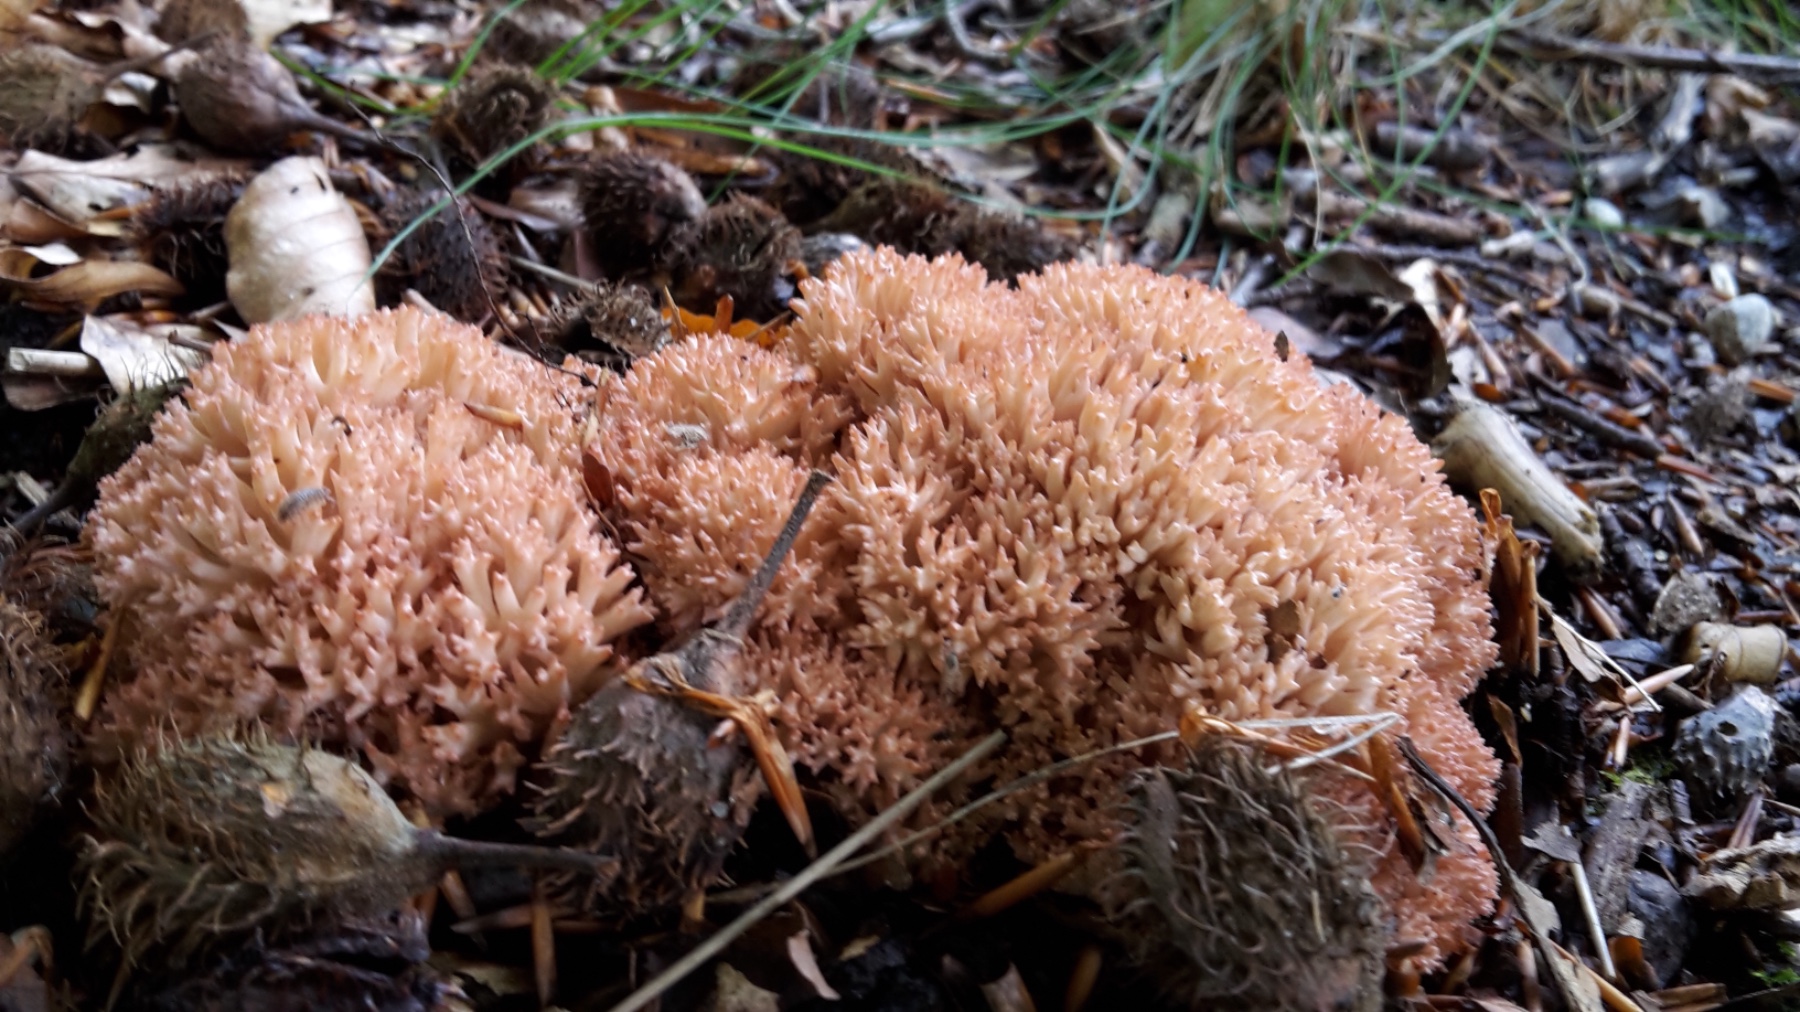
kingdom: Fungi
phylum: Basidiomycota
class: Agaricomycetes
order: Gomphales
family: Gomphaceae
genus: Ramaria
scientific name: Ramaria botrytis
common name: drue-koralsvamp
